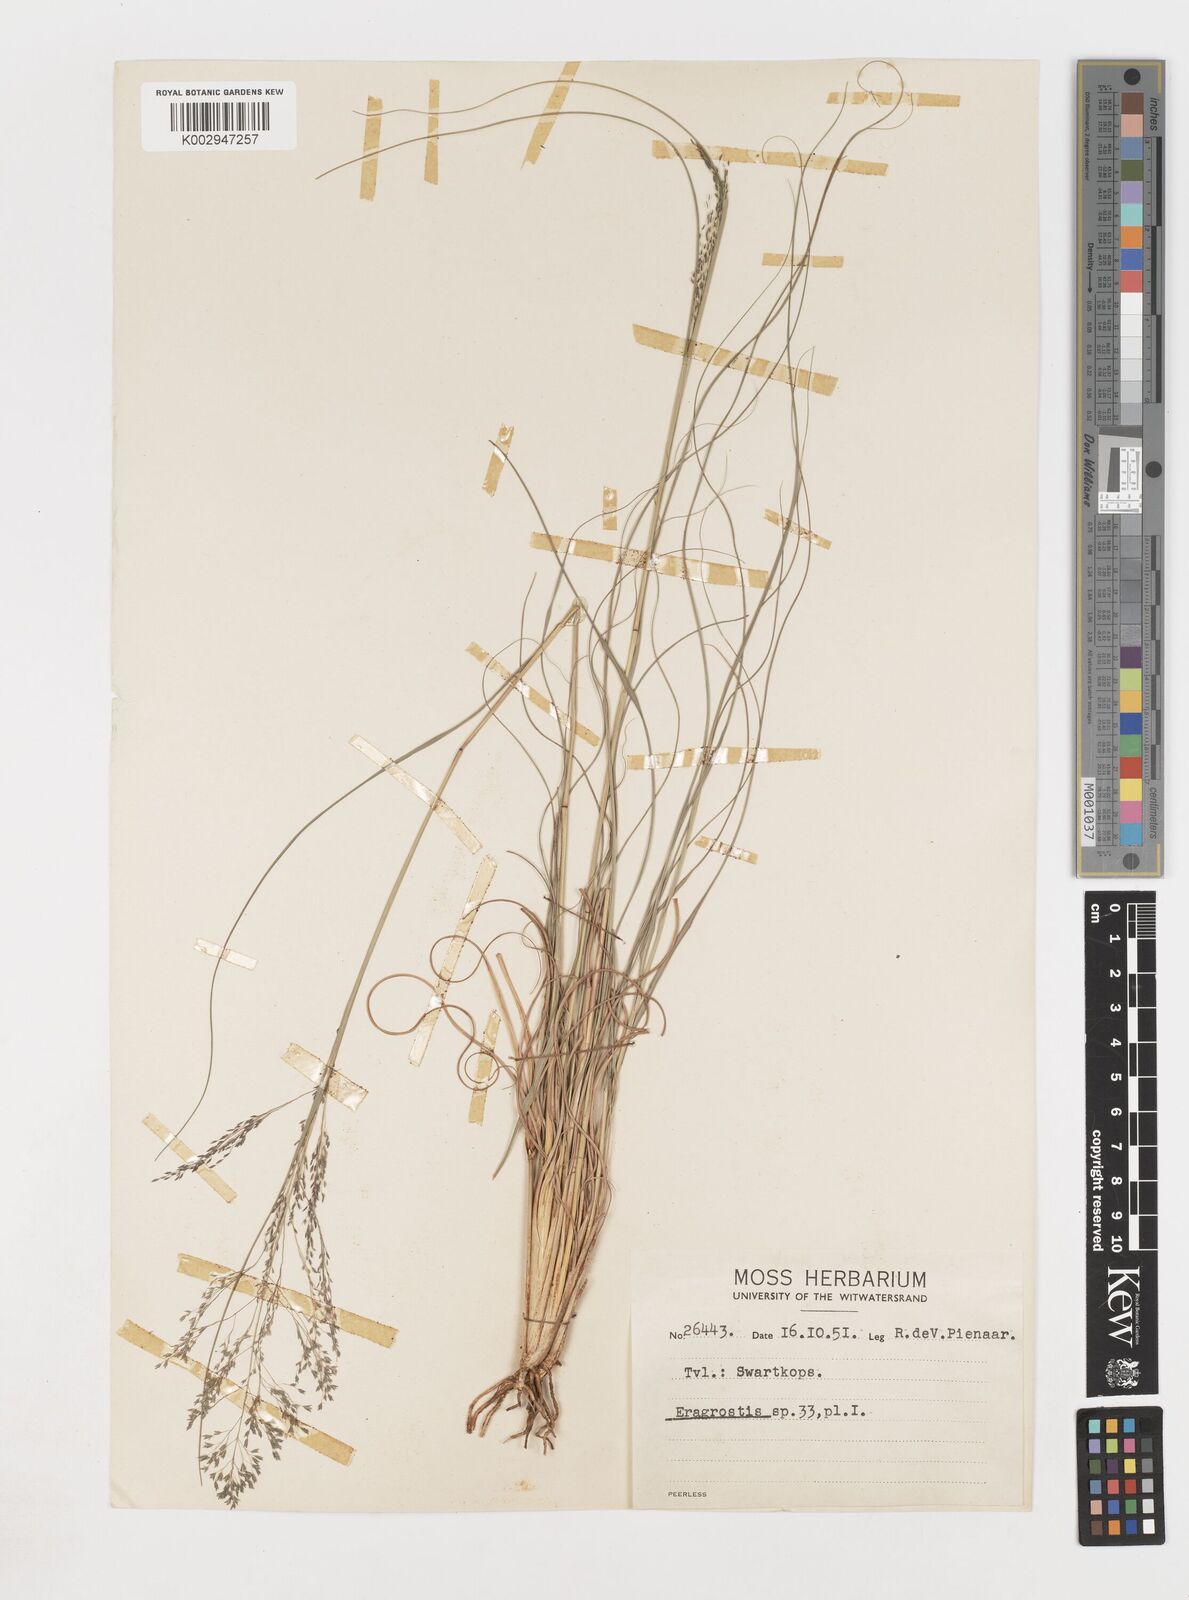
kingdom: Plantae
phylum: Tracheophyta
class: Liliopsida
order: Poales
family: Poaceae
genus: Eragrostis
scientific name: Eragrostis
